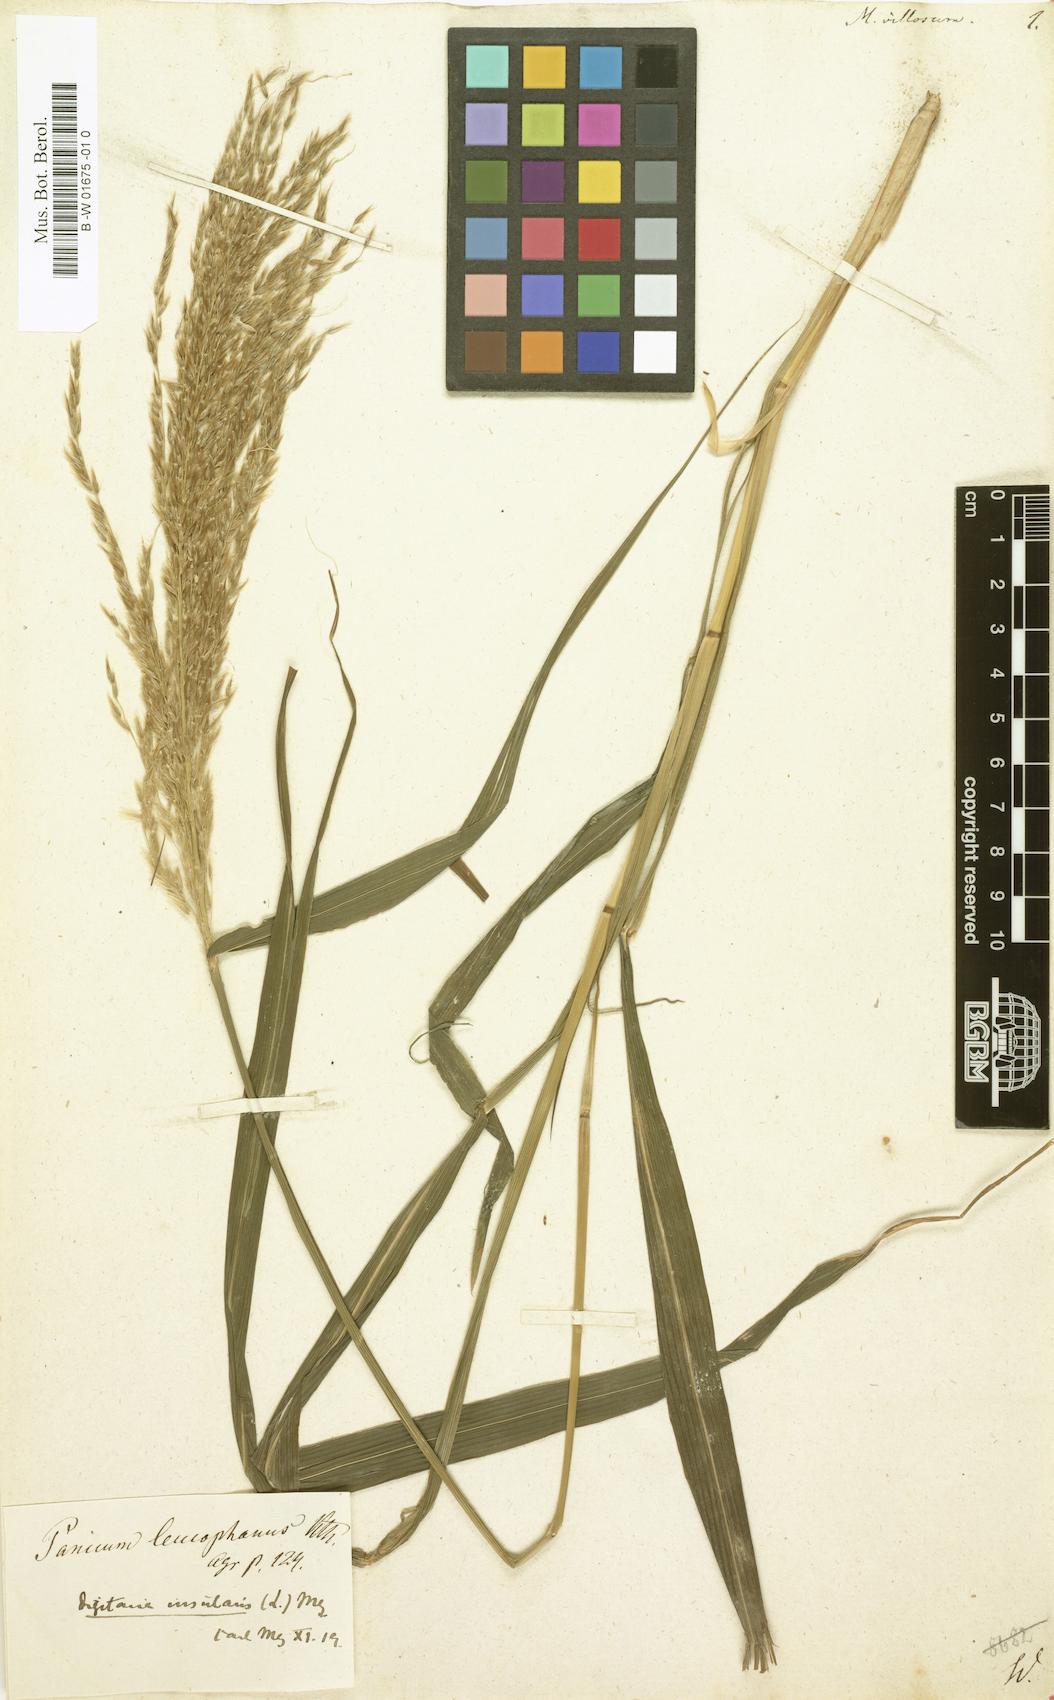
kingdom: Plantae
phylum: Tracheophyta
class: Liliopsida
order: Poales
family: Poaceae
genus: Digitaria
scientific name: Digitaria insularis
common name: Sourgrass
